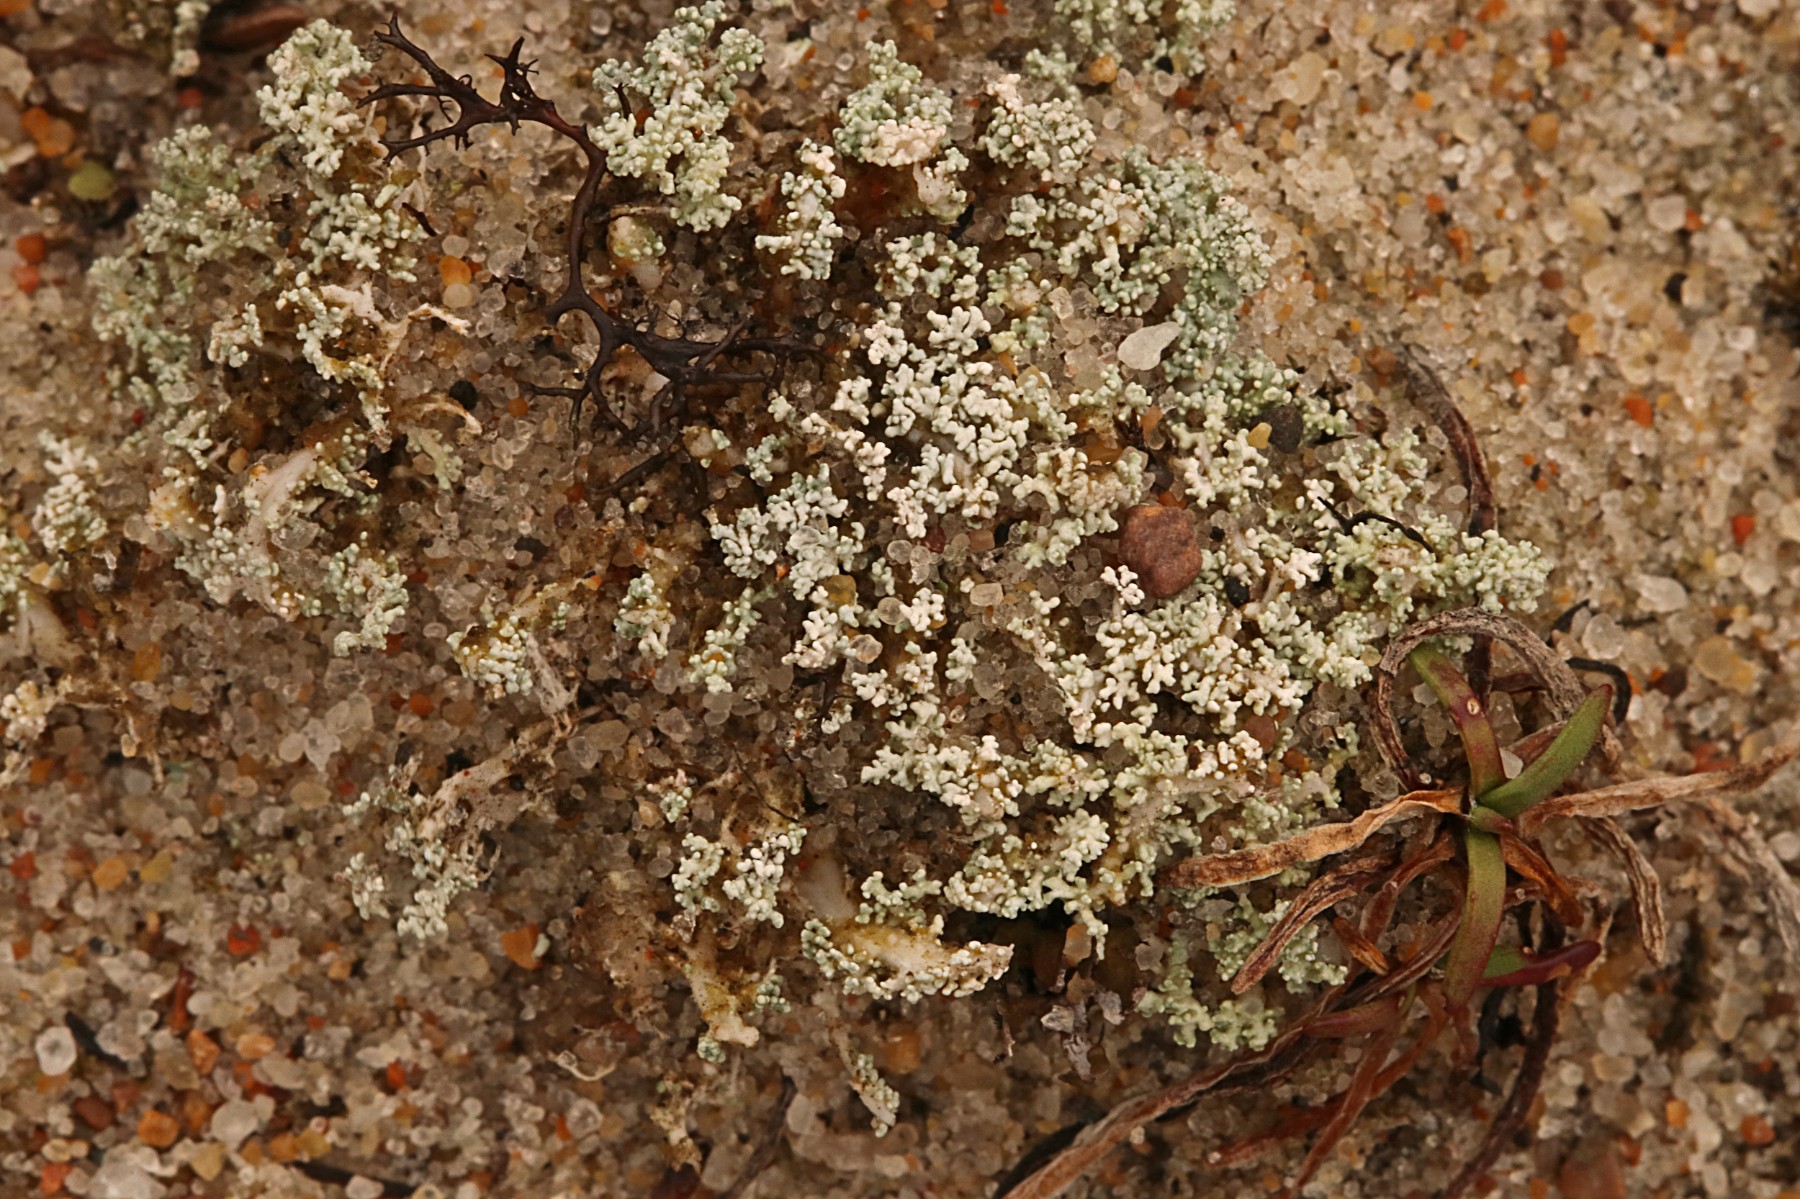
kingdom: Fungi
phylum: Ascomycota
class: Lecanoromycetes
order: Lecanorales
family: Stereocaulaceae
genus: Stereocaulon
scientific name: Stereocaulon condensatum
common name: lav korallav
